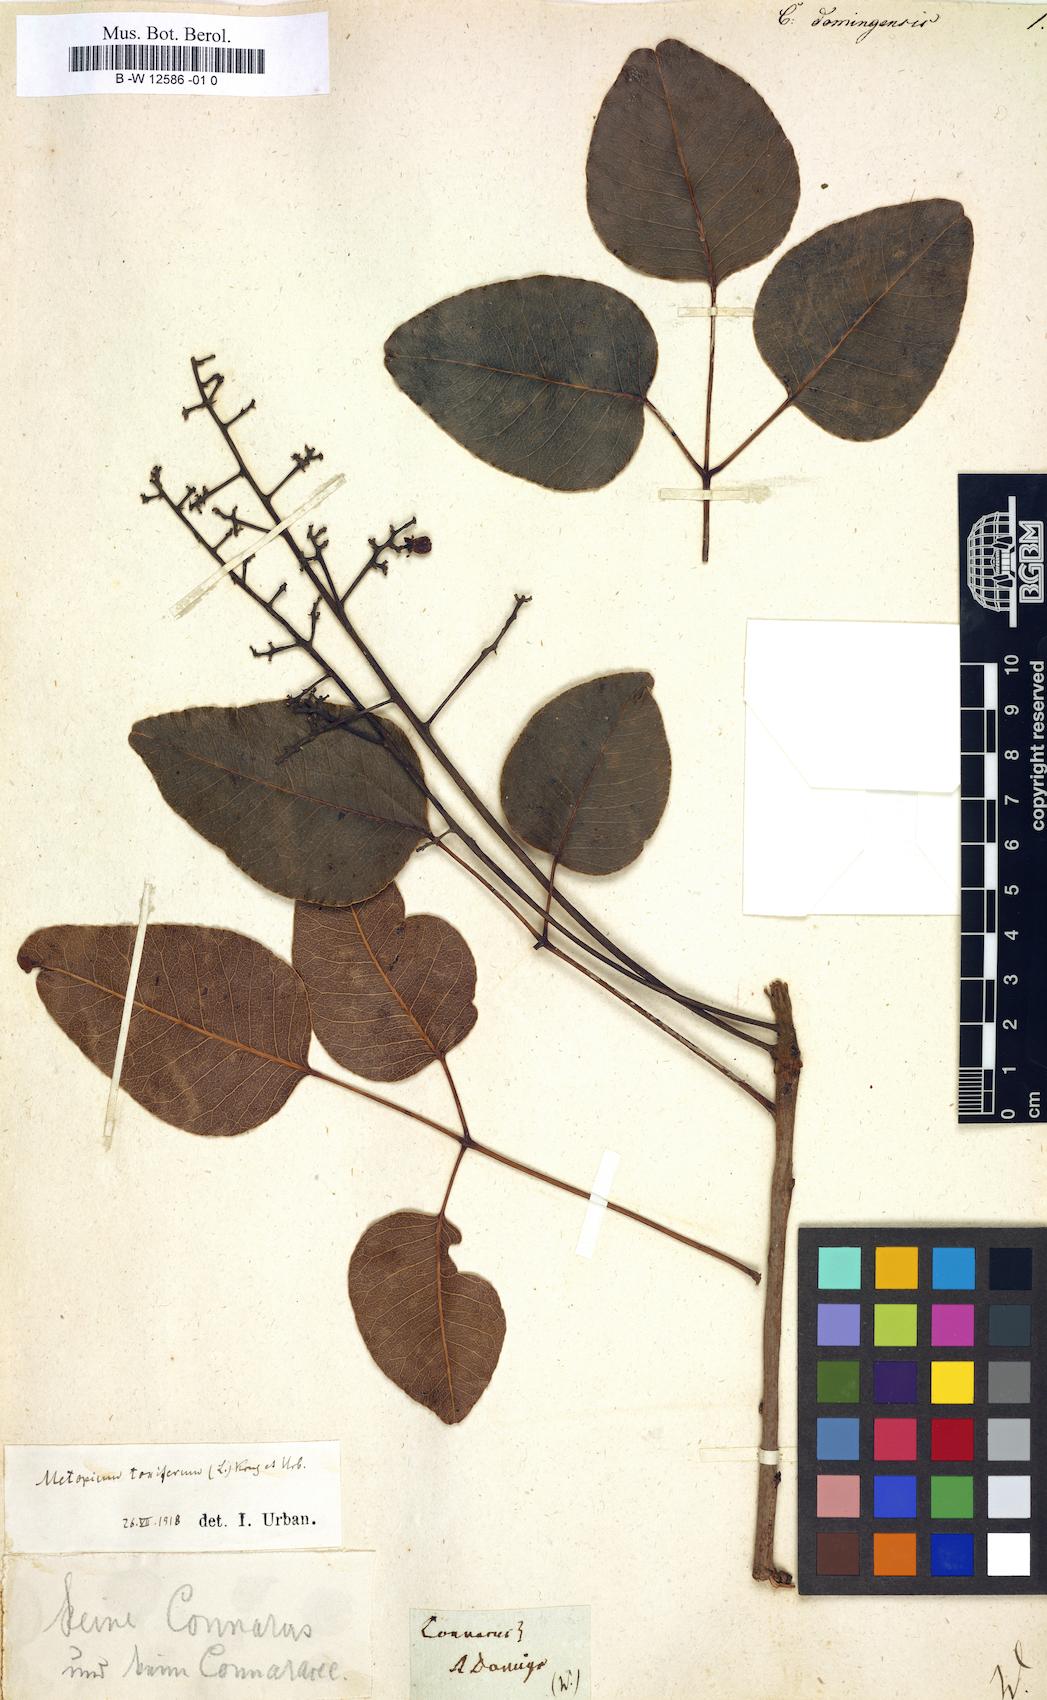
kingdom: Plantae
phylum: Tracheophyta
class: Magnoliopsida
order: Oxalidales
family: Connaraceae
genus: Connarus
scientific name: Connarus
